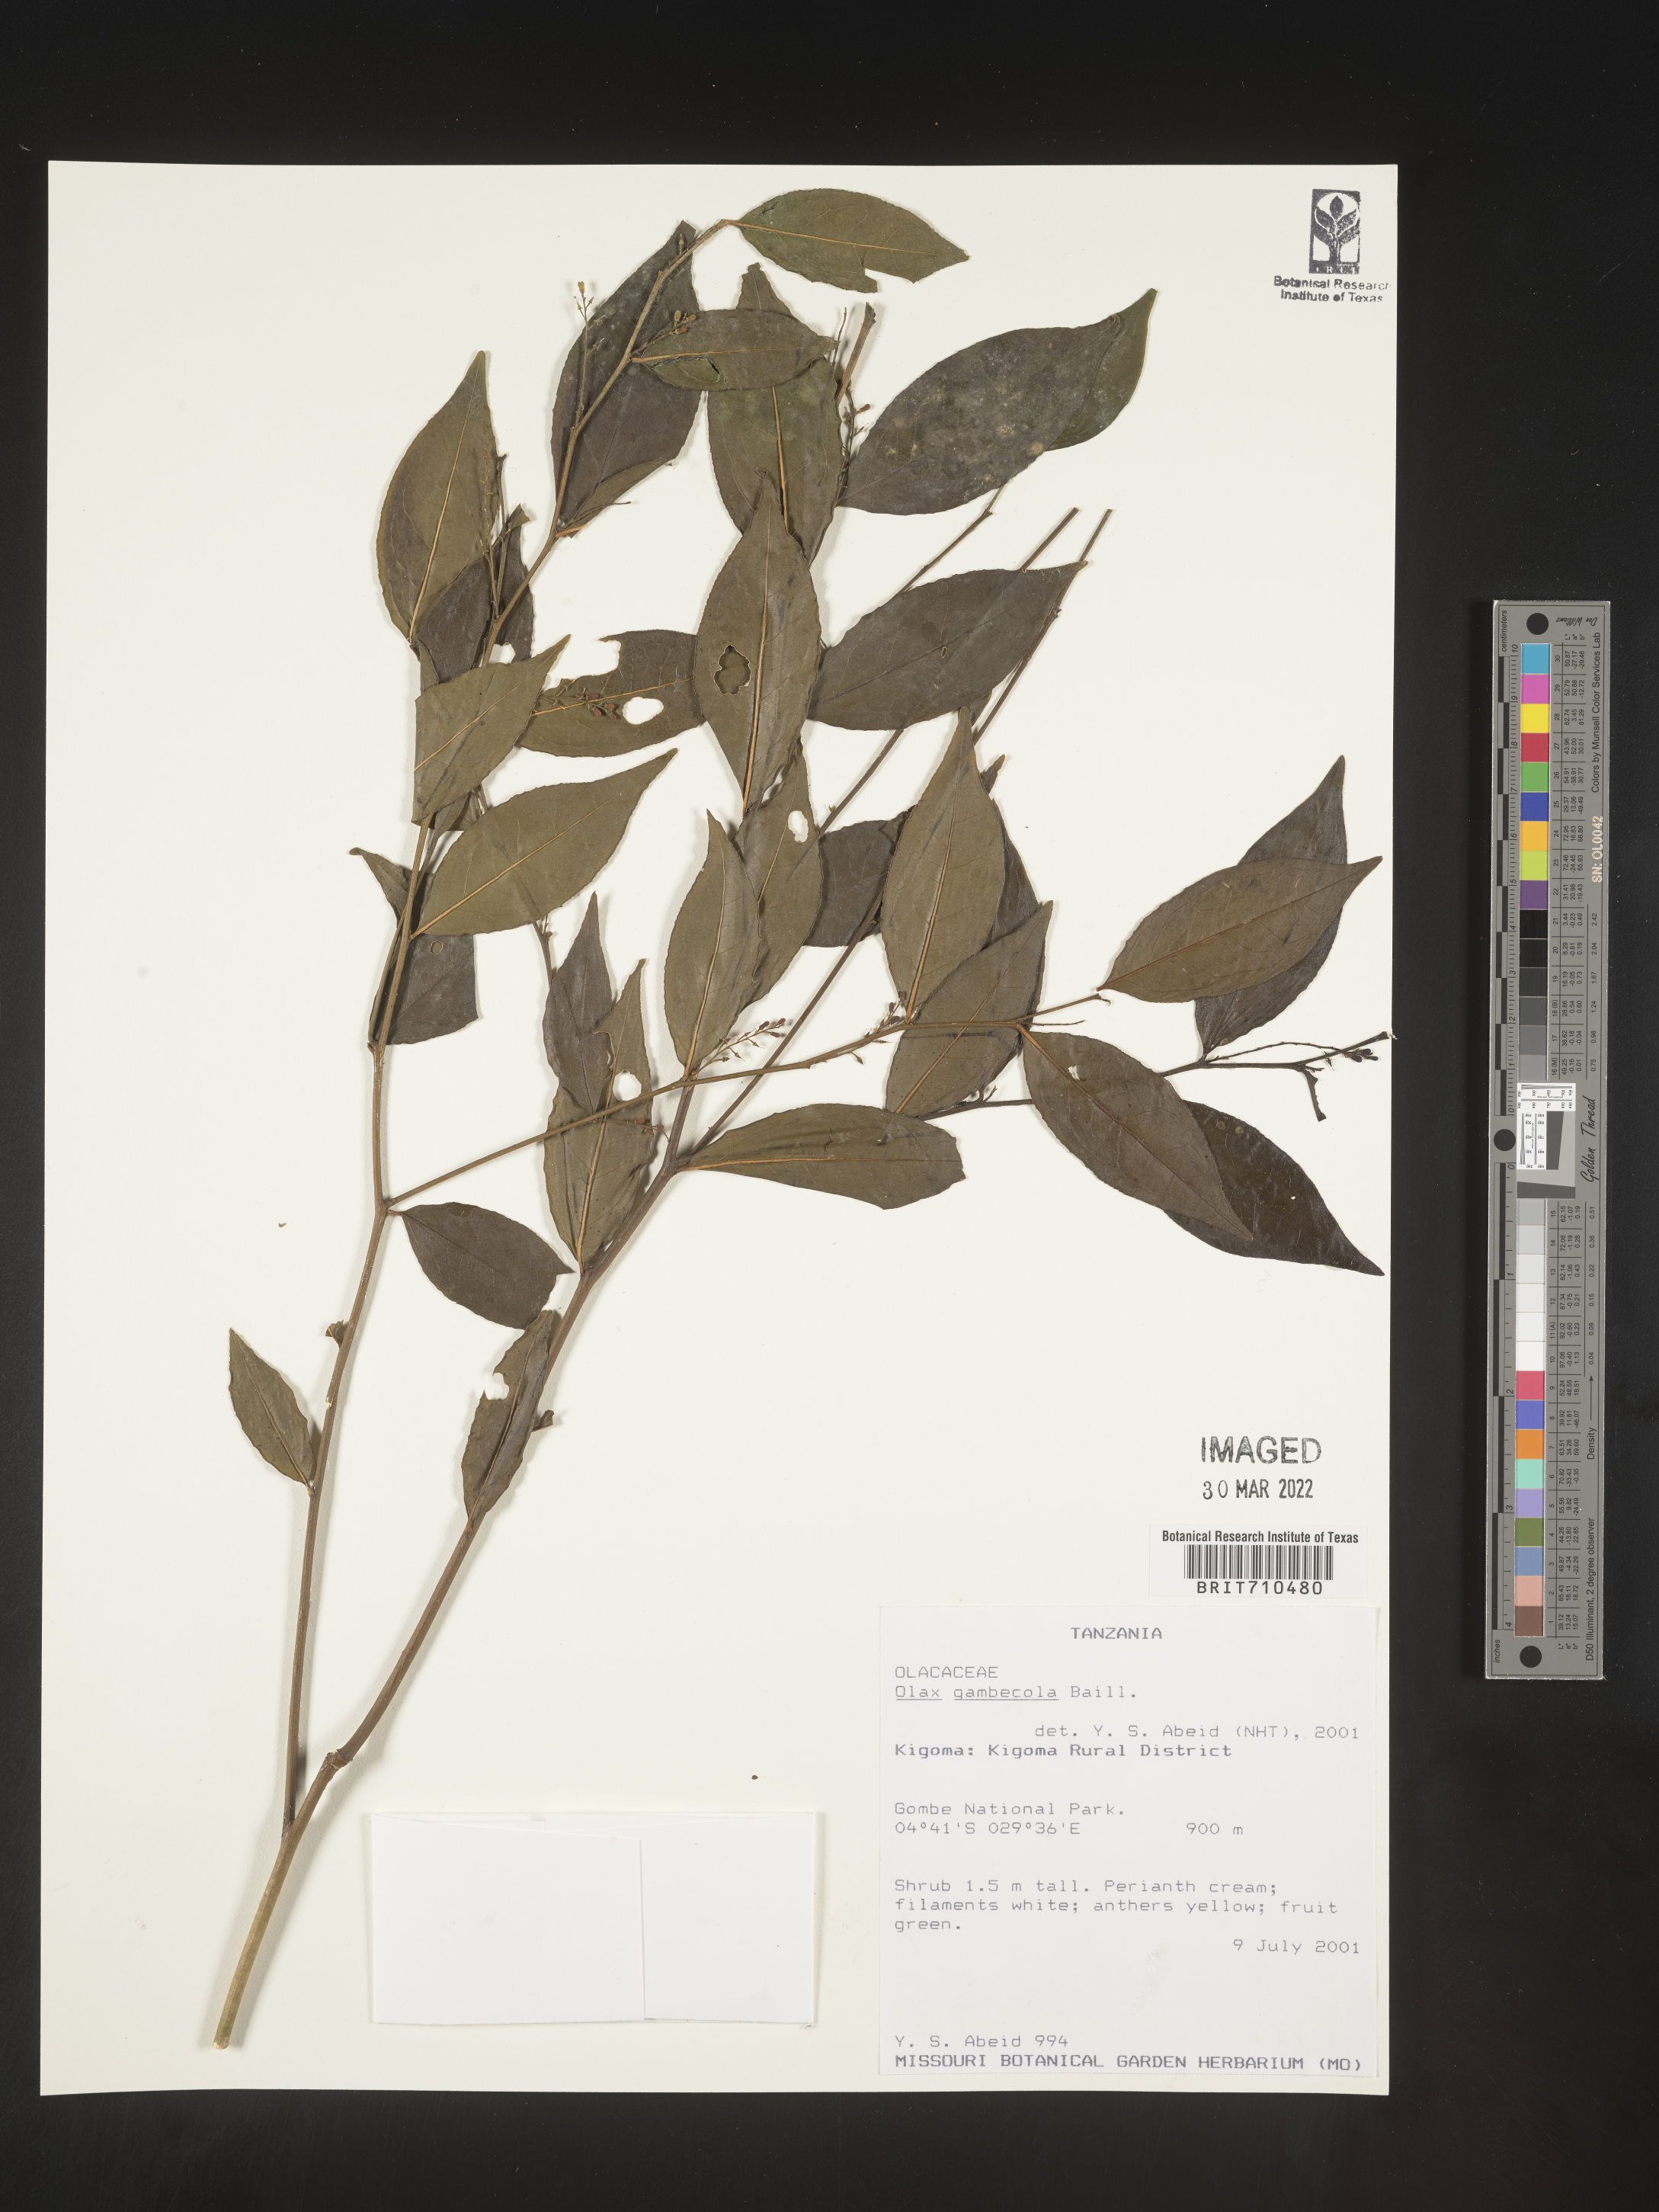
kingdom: Plantae
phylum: Tracheophyta
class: Magnoliopsida
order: Santalales
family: Olacaceae
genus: Olax
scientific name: Olax
